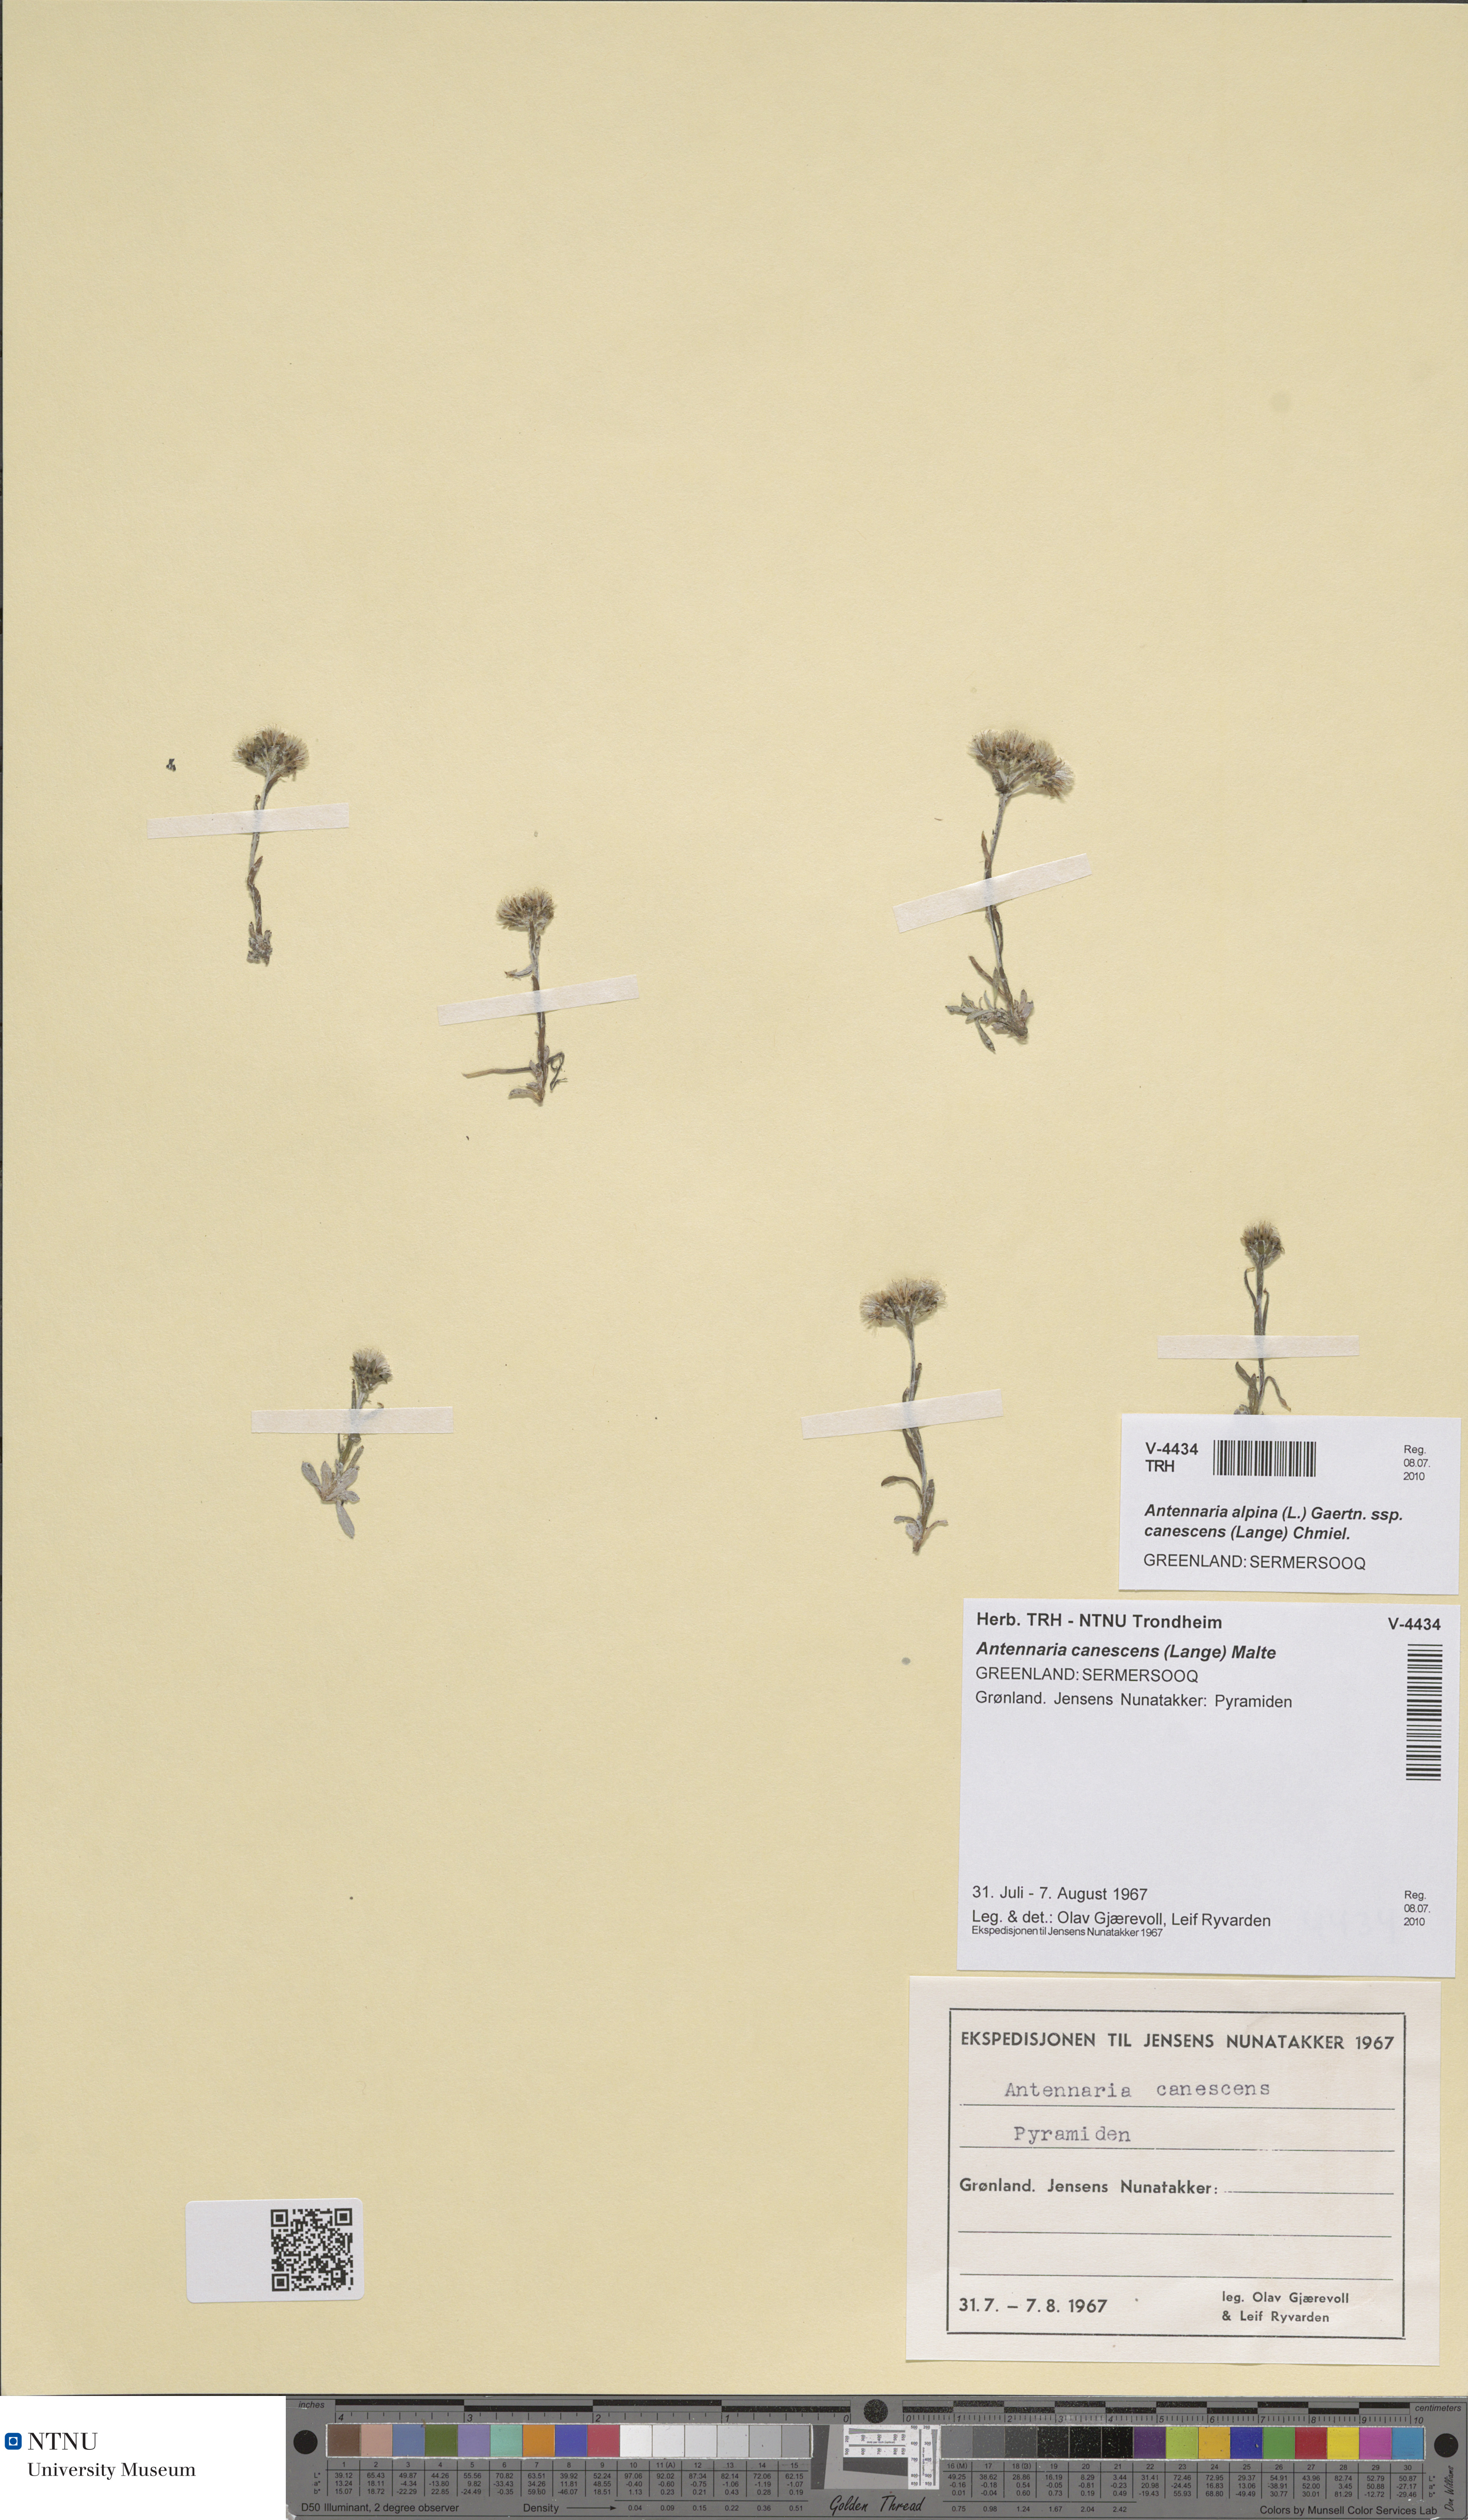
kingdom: Plantae
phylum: Tracheophyta
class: Magnoliopsida
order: Asterales
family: Asteraceae
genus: Antennaria
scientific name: Antennaria canescens
